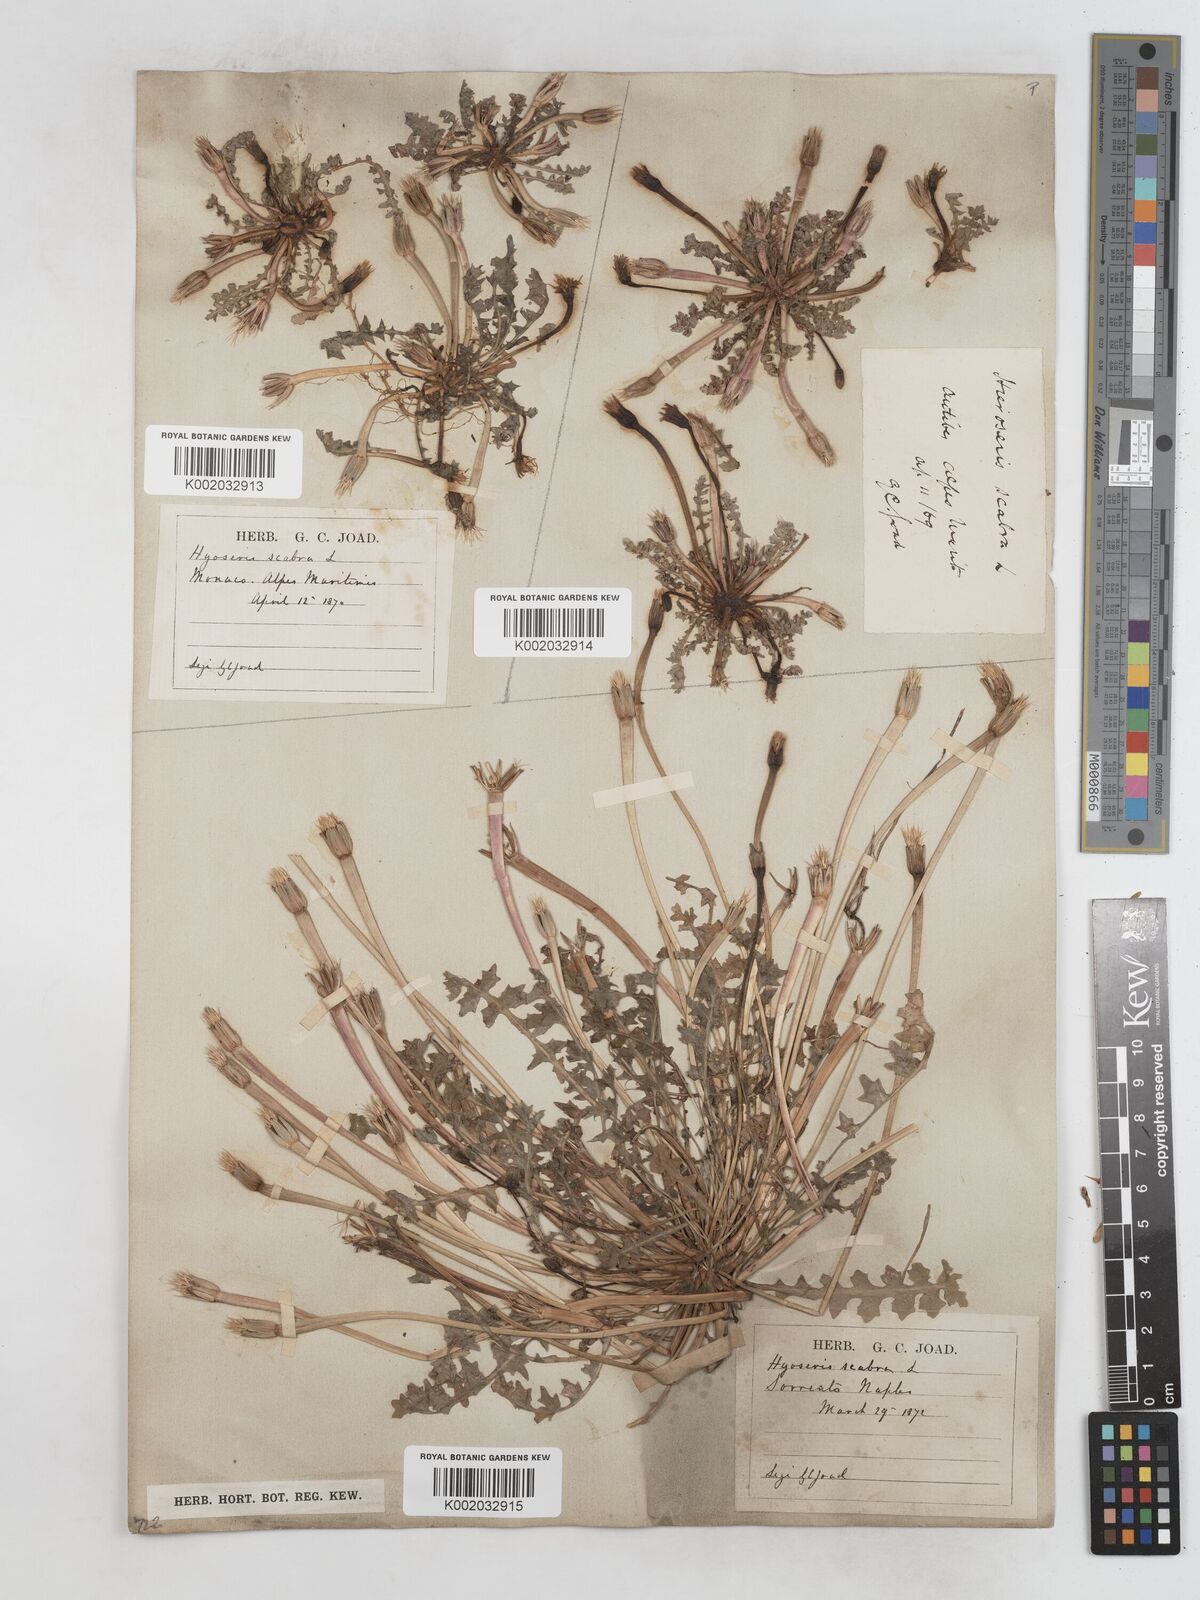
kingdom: Plantae
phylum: Tracheophyta
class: Magnoliopsida
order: Asterales
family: Asteraceae
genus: Hyoseris
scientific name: Hyoseris scabra
